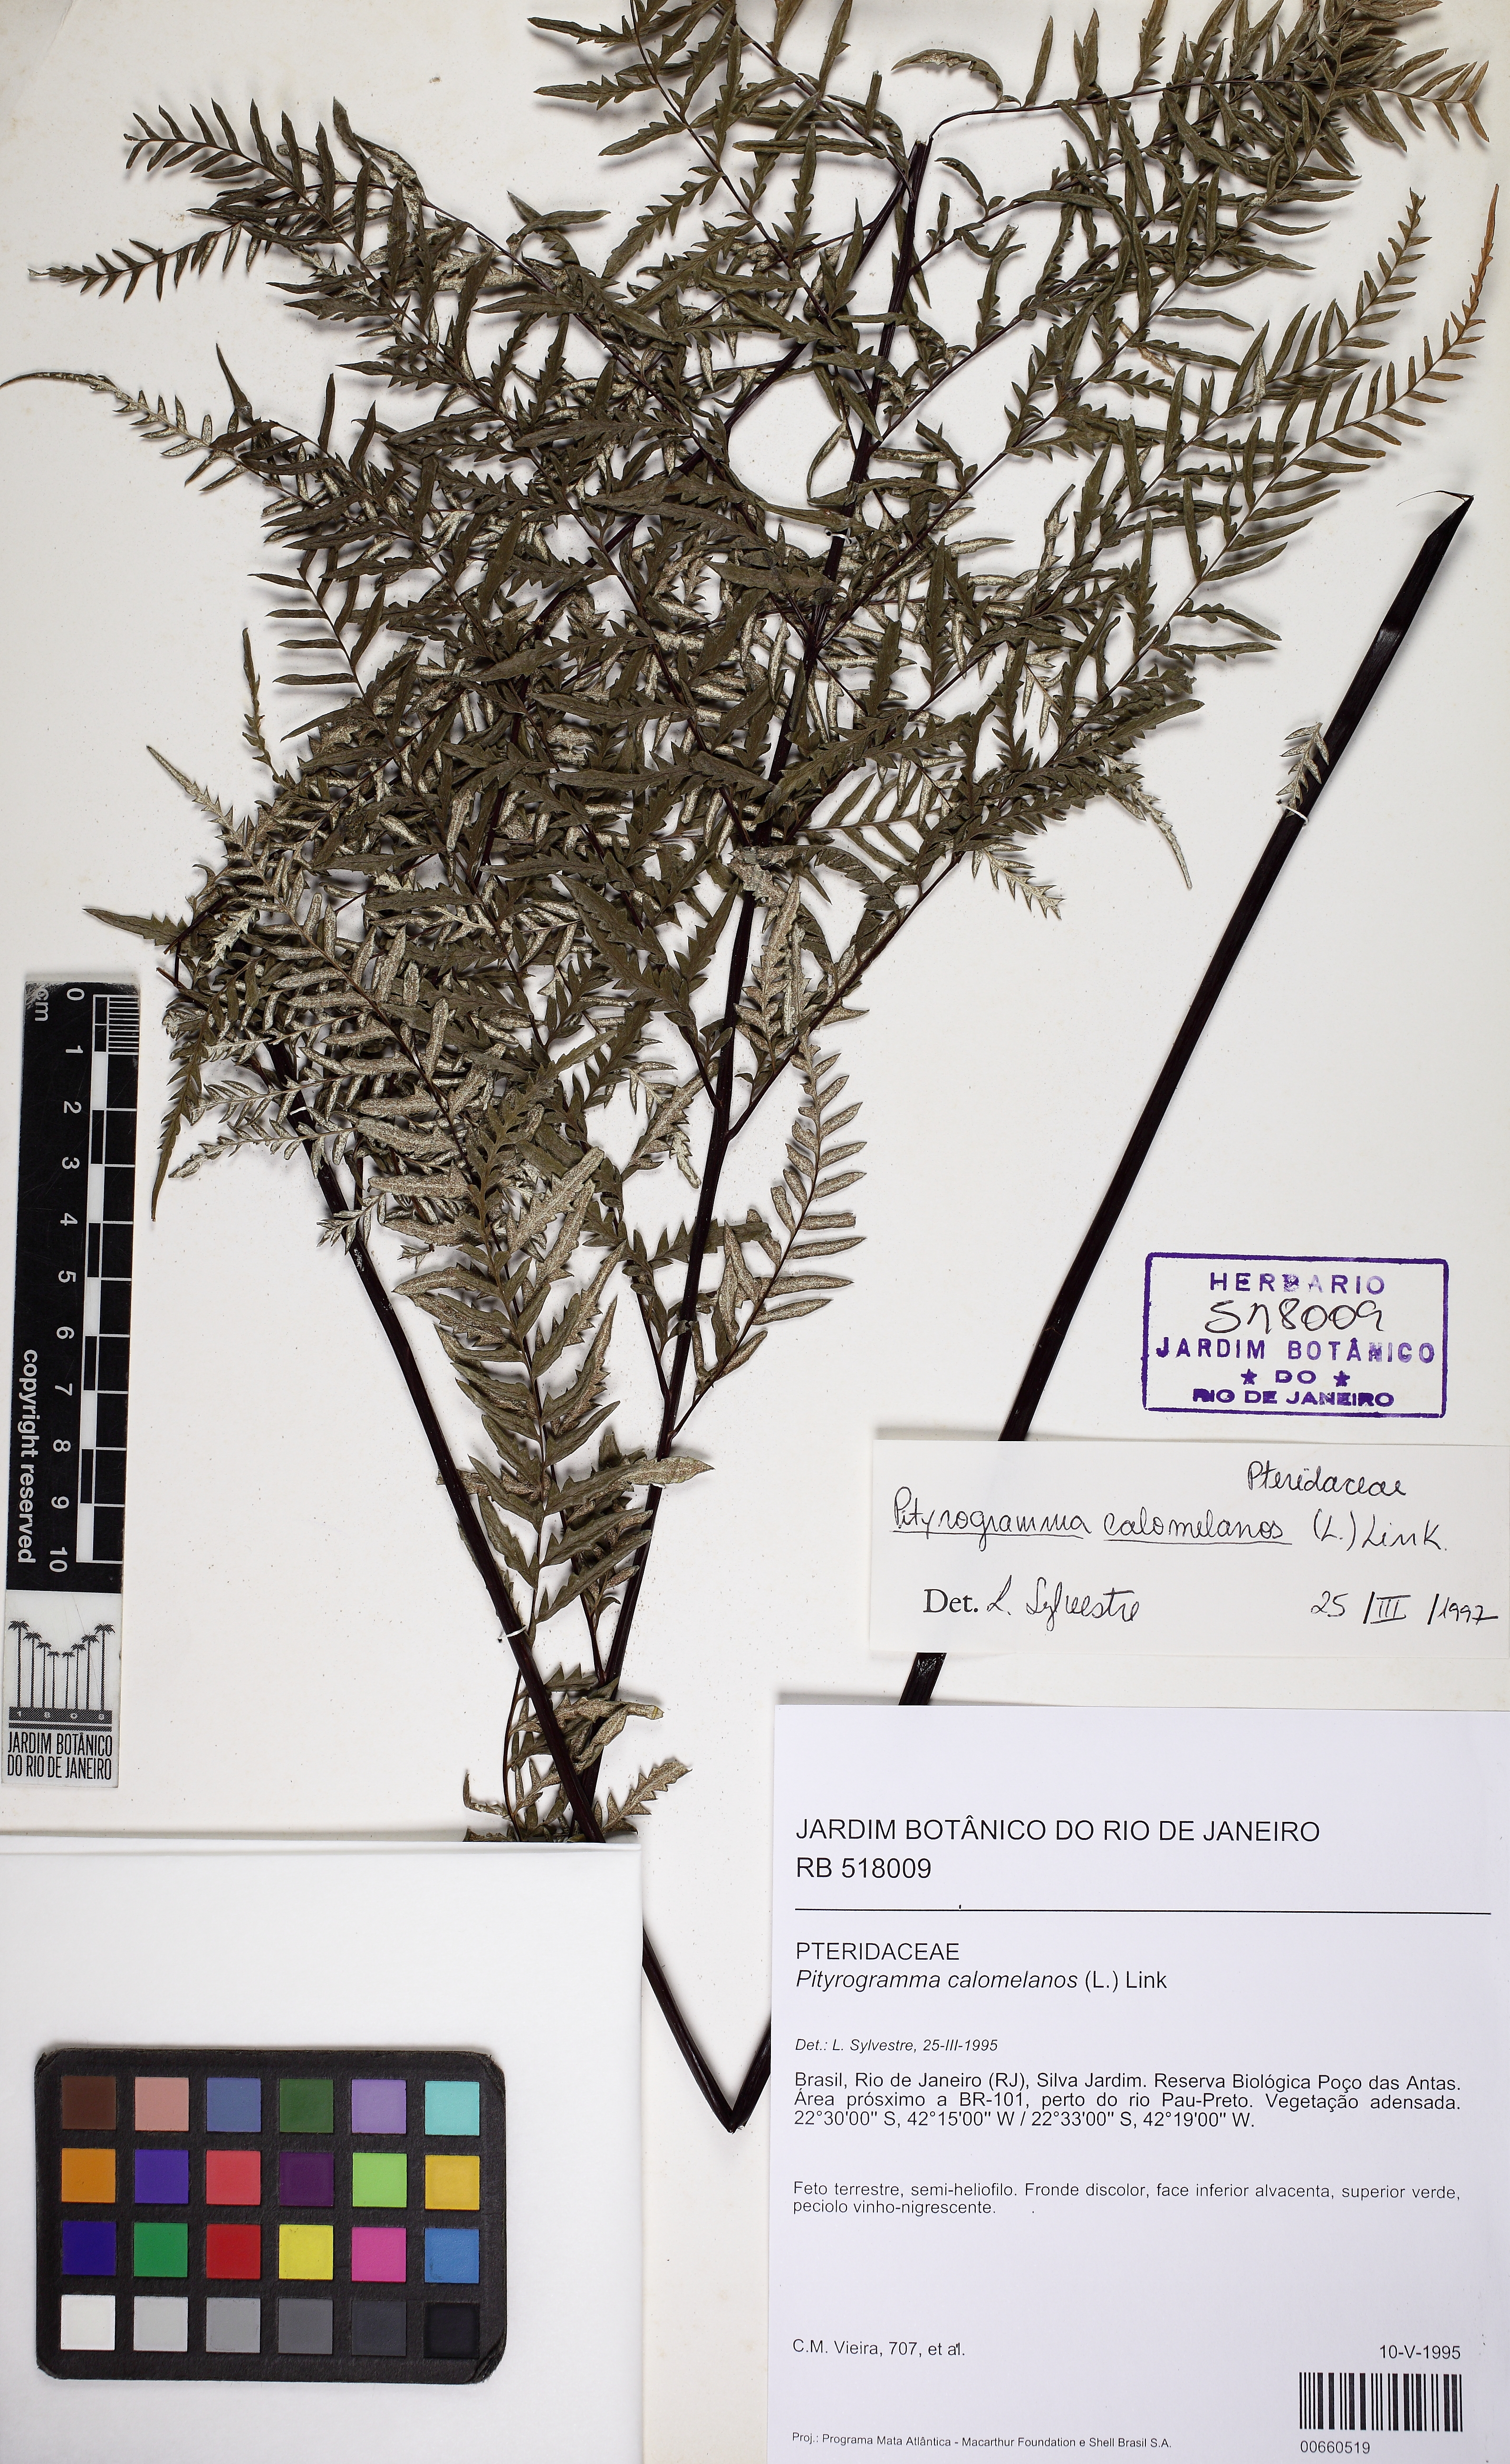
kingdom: Plantae
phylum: Tracheophyta
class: Polypodiopsida
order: Polypodiales
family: Pteridaceae
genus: Pityrogramma
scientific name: Pityrogramma calomelanos
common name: Dixie silverback fern
